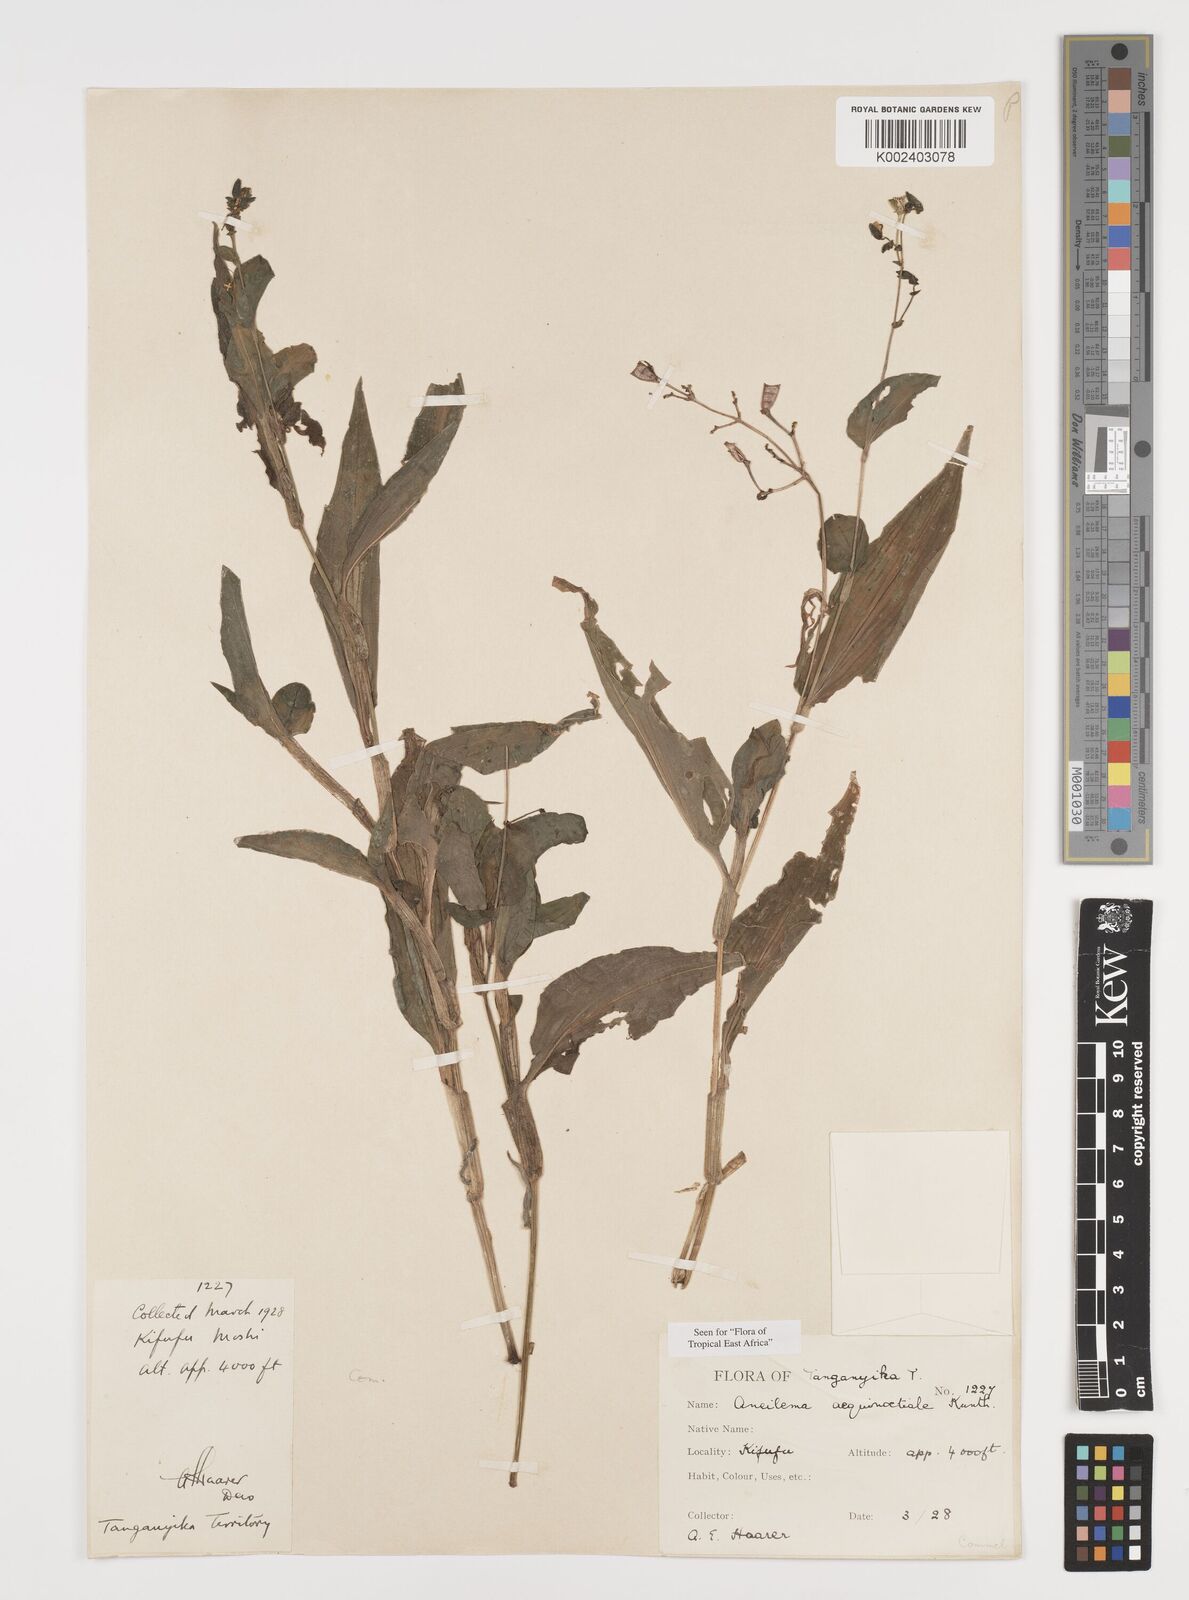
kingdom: Plantae
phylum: Tracheophyta
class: Liliopsida
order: Commelinales
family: Commelinaceae
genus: Aneilema
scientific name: Aneilema aequinoctiale
